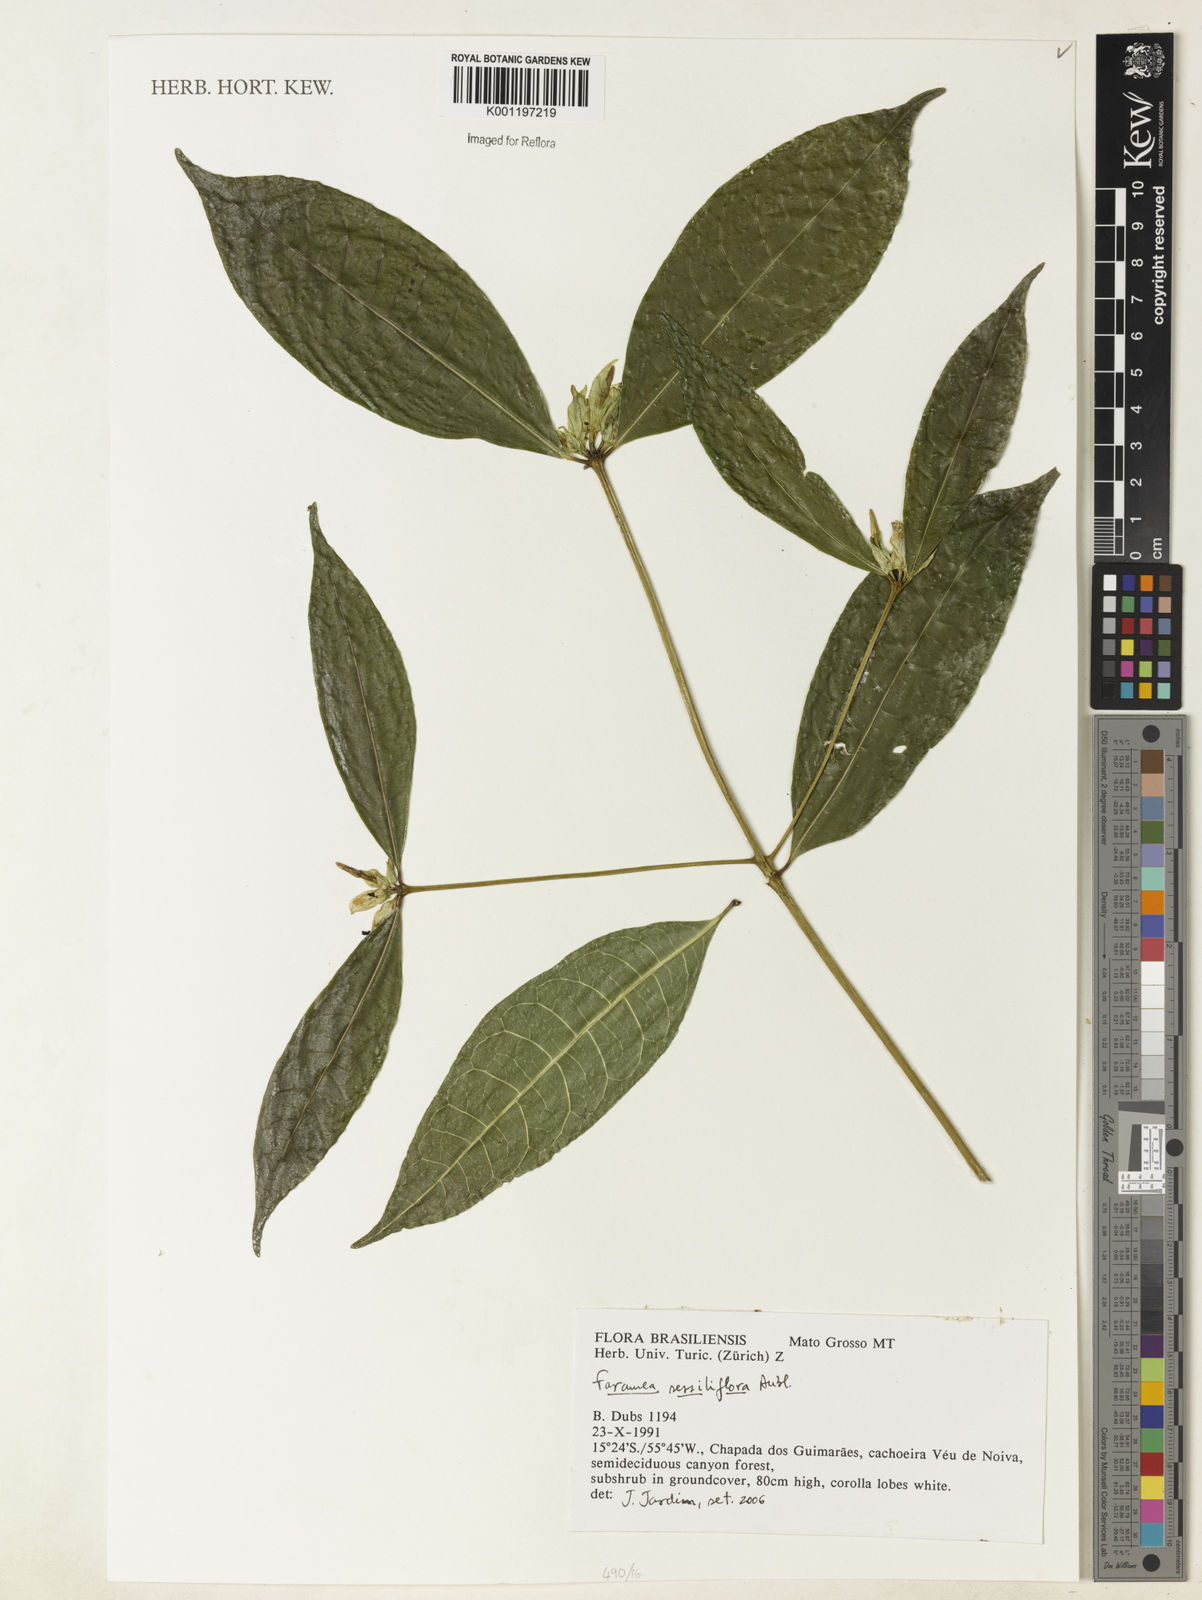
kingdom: Plantae
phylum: Tracheophyta
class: Magnoliopsida
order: Gentianales
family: Rubiaceae
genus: Faramea
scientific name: Faramea sessilifolia
